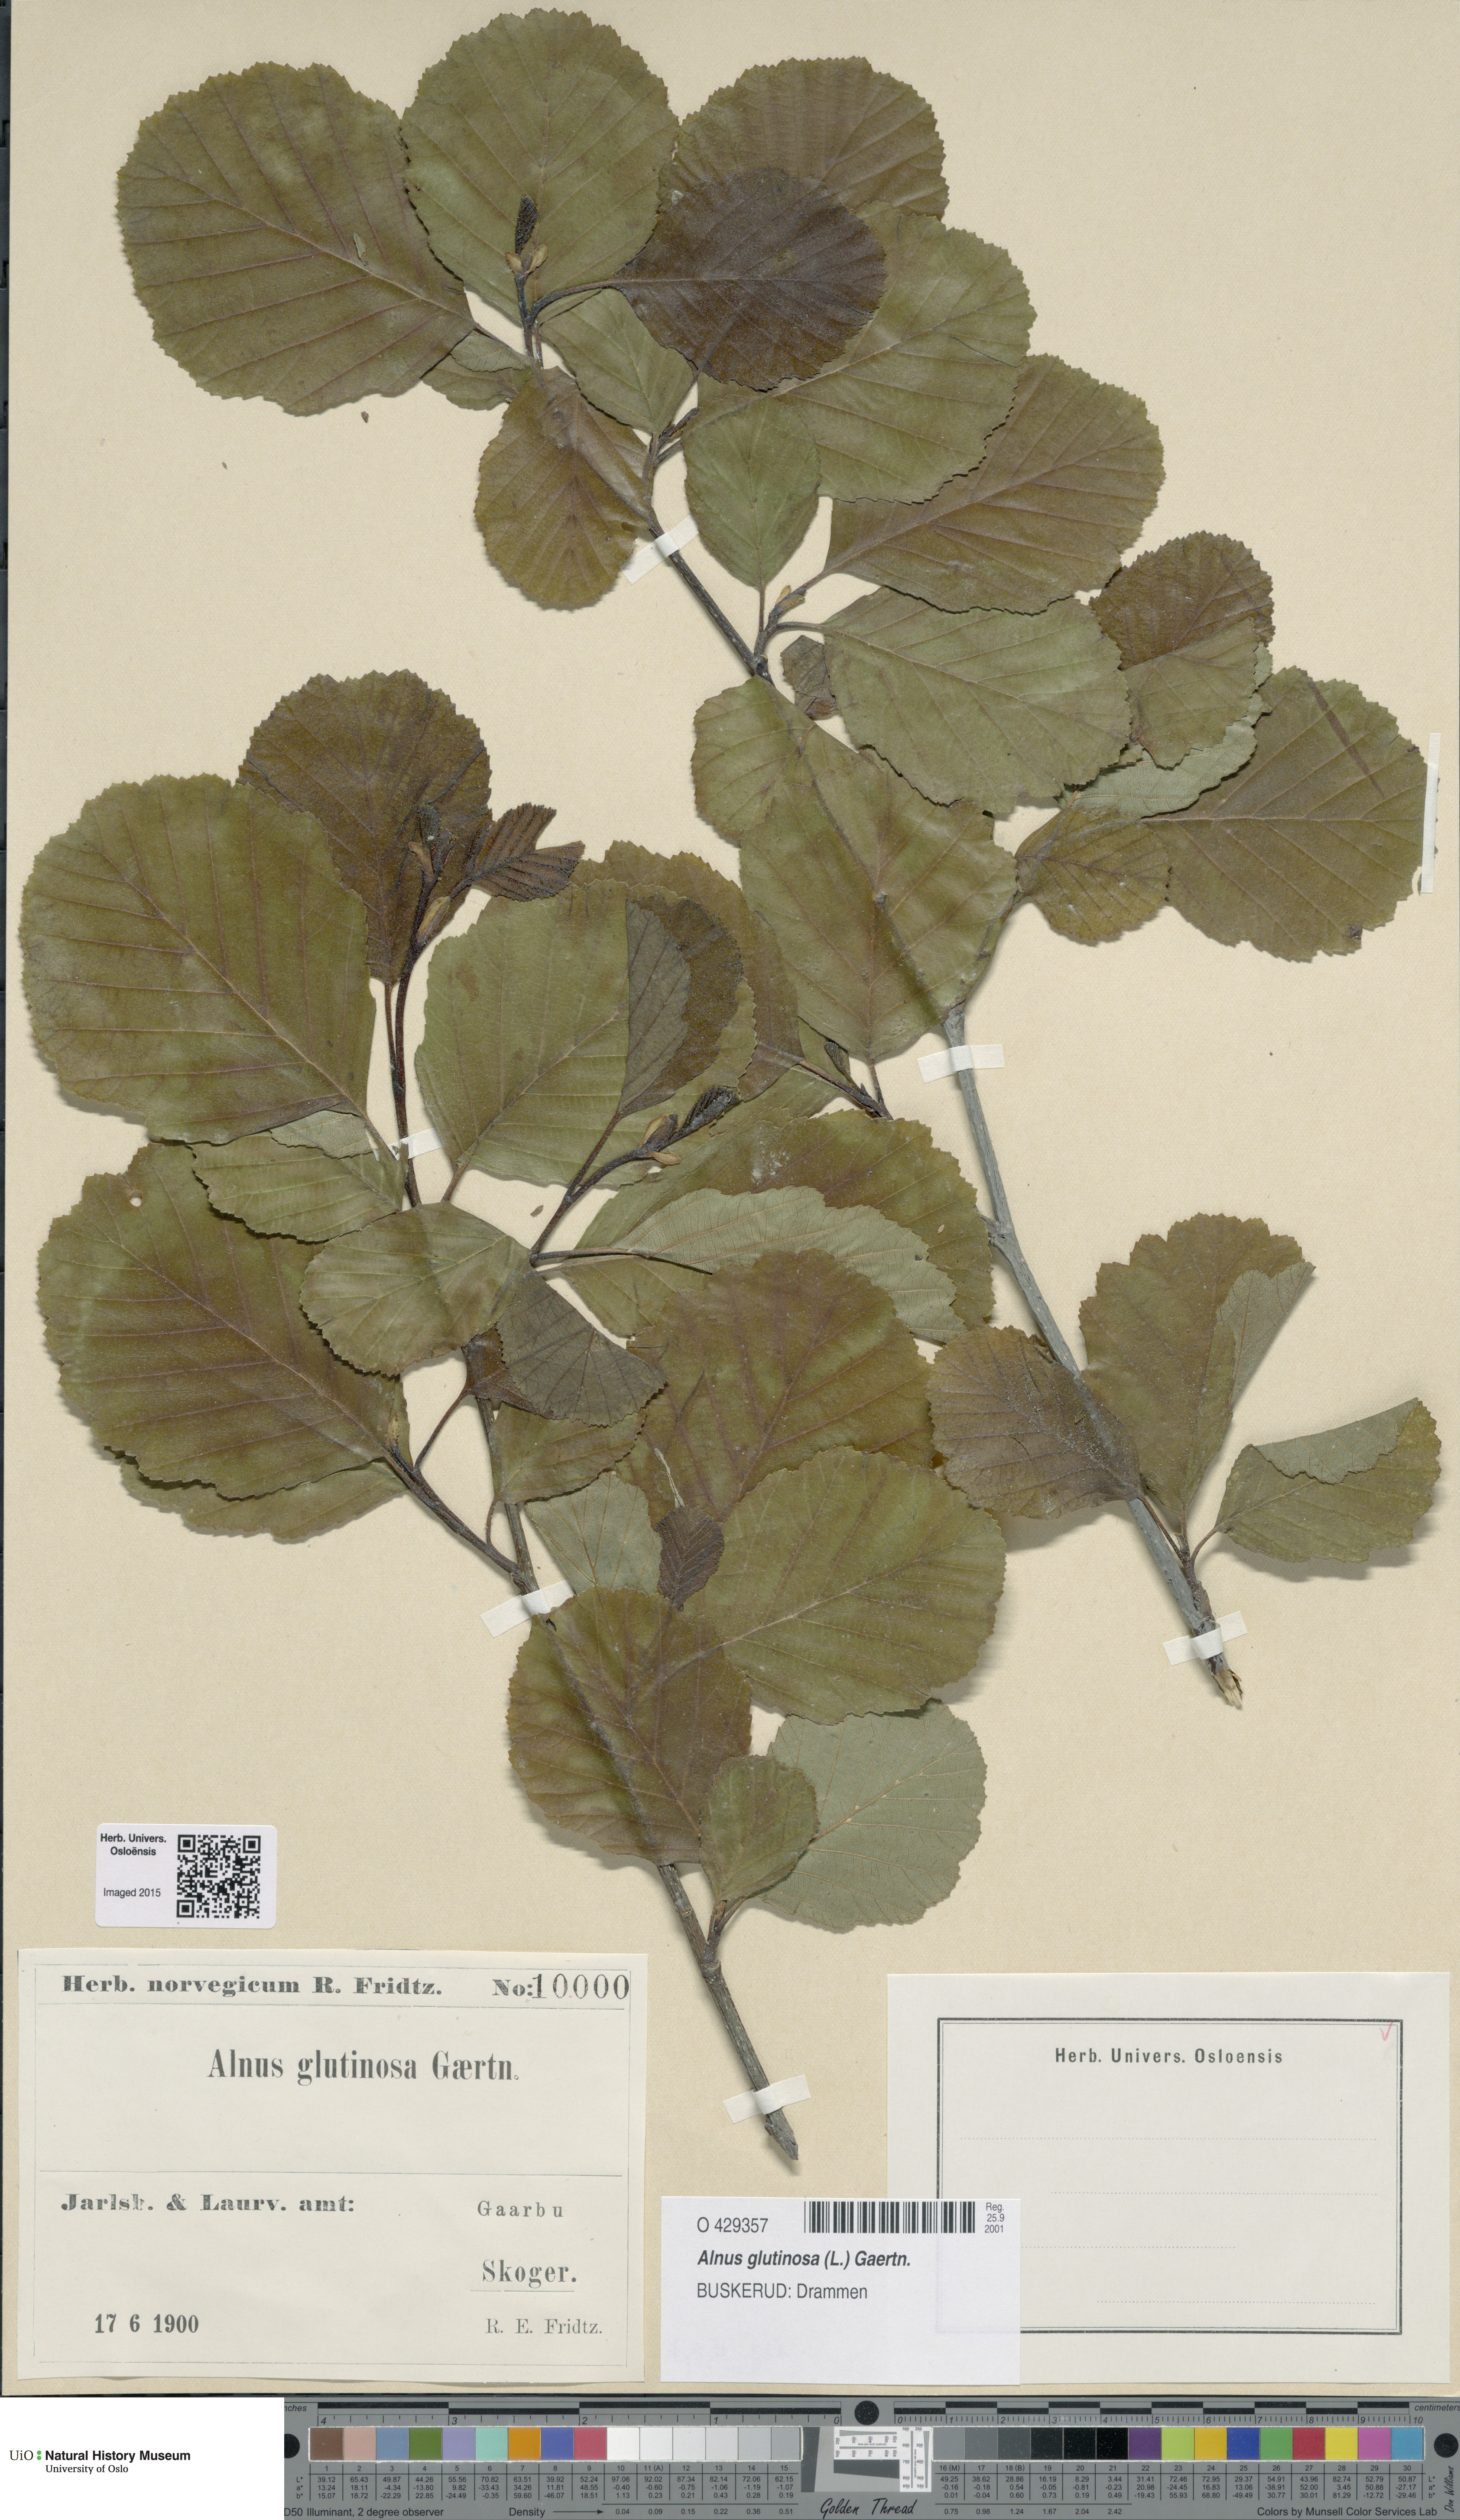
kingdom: Plantae
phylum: Tracheophyta
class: Magnoliopsida
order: Fagales
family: Betulaceae
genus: Alnus
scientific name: Alnus glutinosa
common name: Black alder
